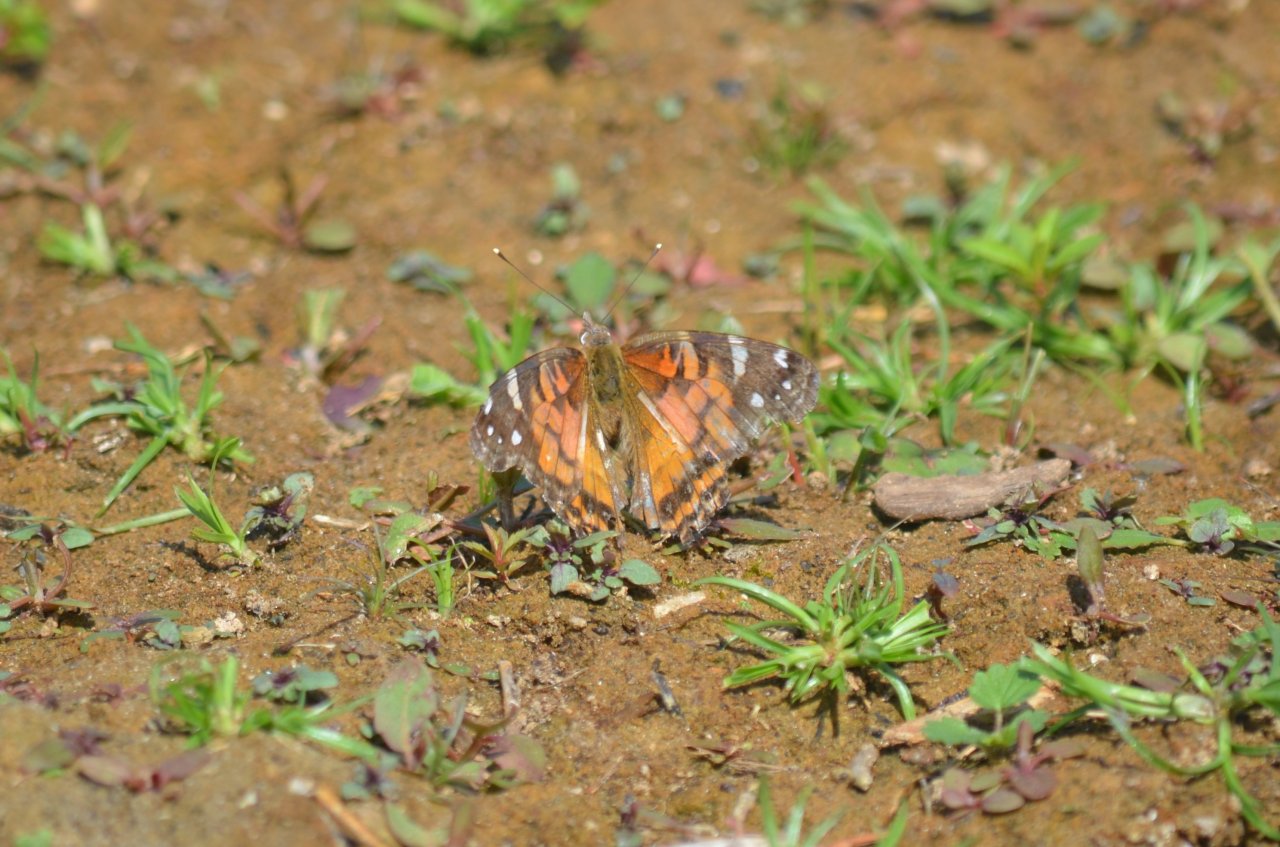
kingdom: Animalia
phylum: Arthropoda
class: Insecta
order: Lepidoptera
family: Nymphalidae
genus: Vanessa
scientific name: Vanessa virginiensis
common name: American Lady
